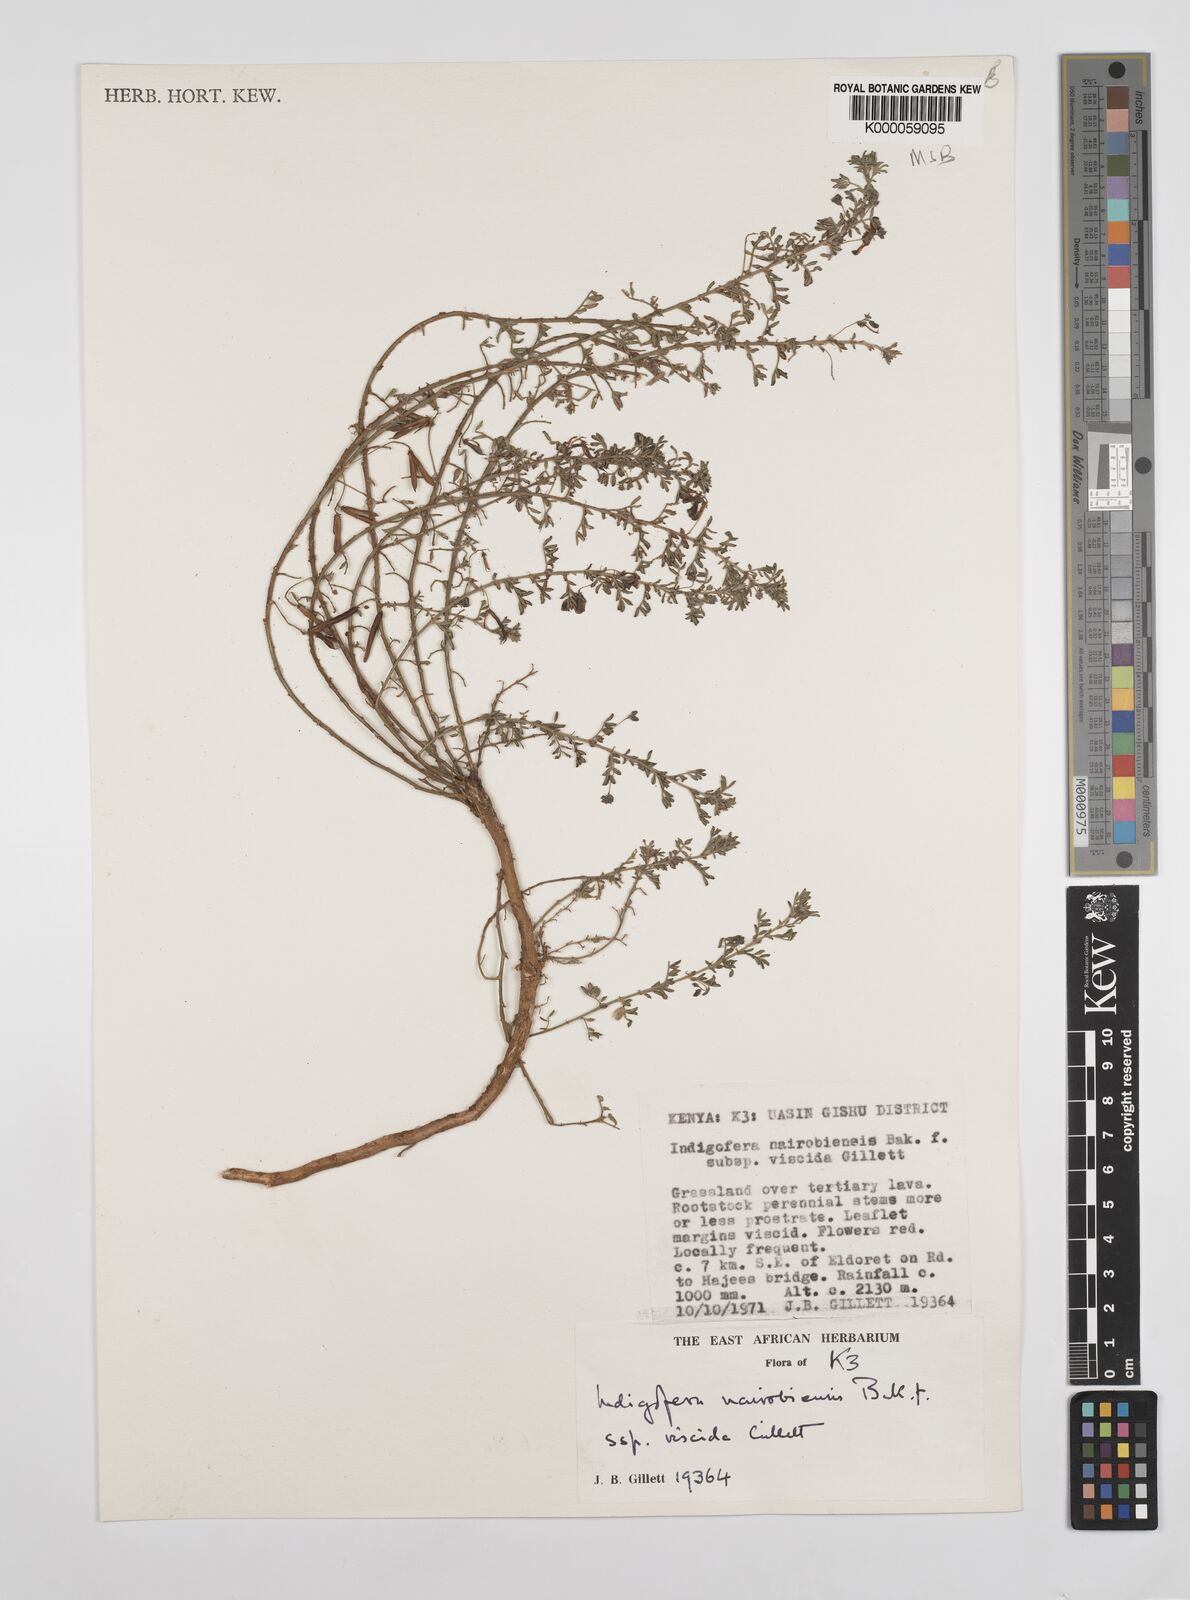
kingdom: Plantae
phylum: Tracheophyta
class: Magnoliopsida
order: Fabales
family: Fabaceae
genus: Indigofera
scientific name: Indigofera nairobiensis
